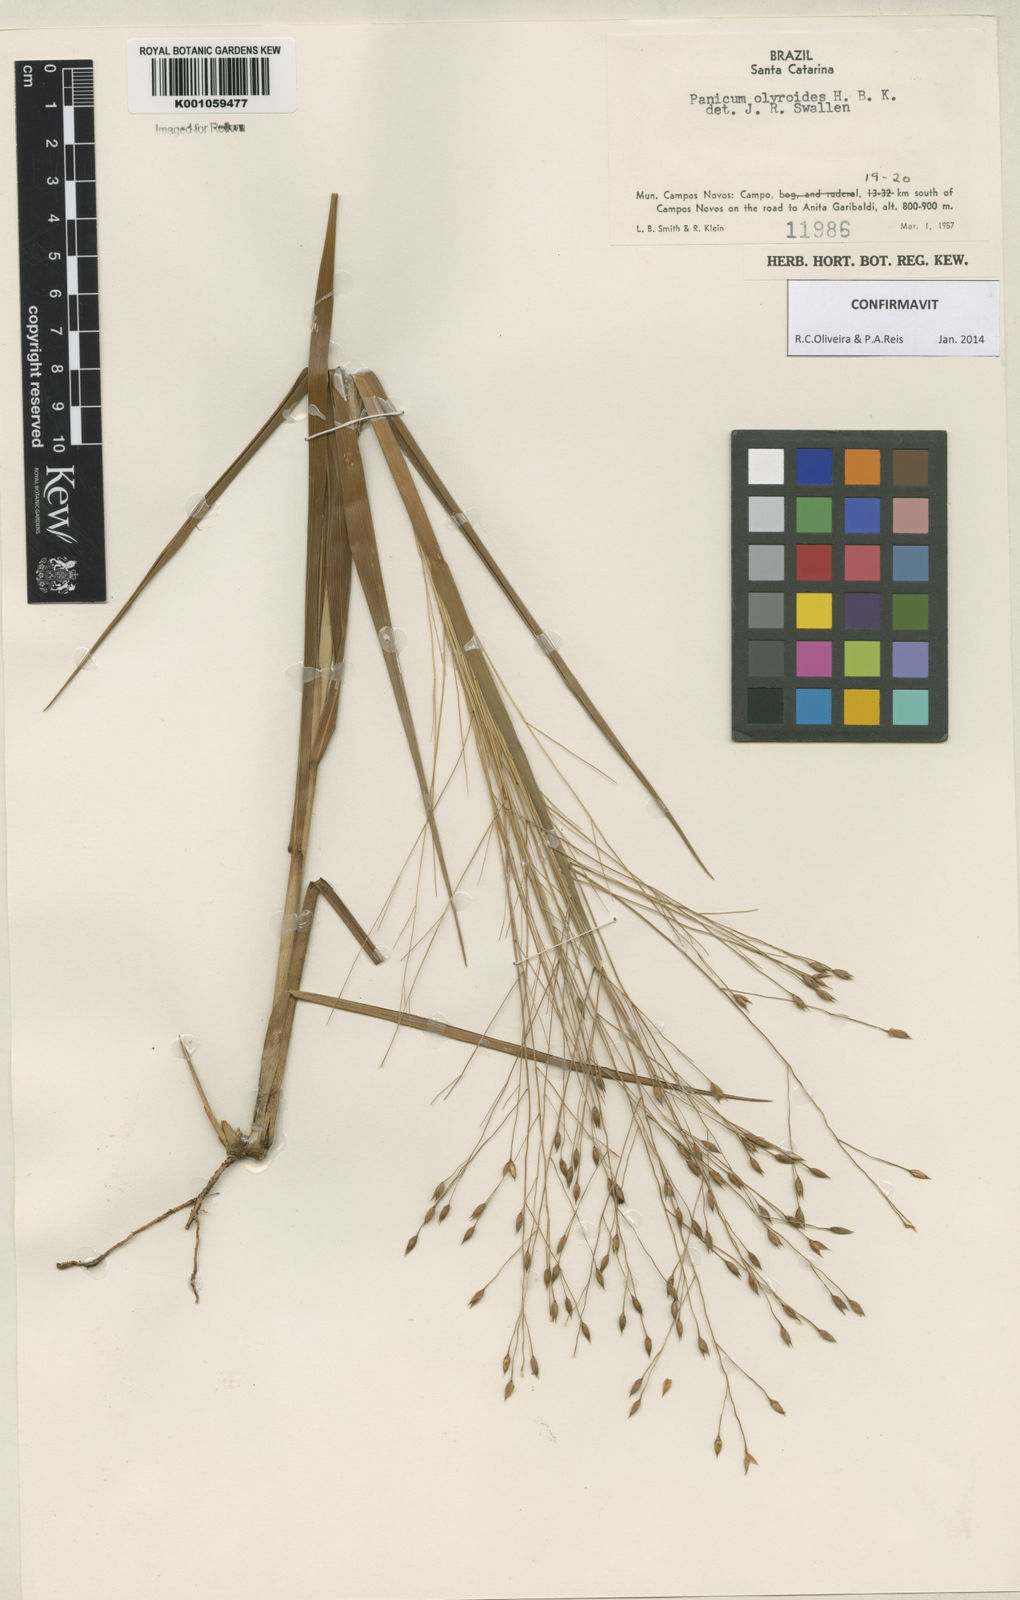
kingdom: Plantae
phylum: Tracheophyta
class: Liliopsida
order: Poales
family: Poaceae
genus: Panicum
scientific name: Panicum olyroides
